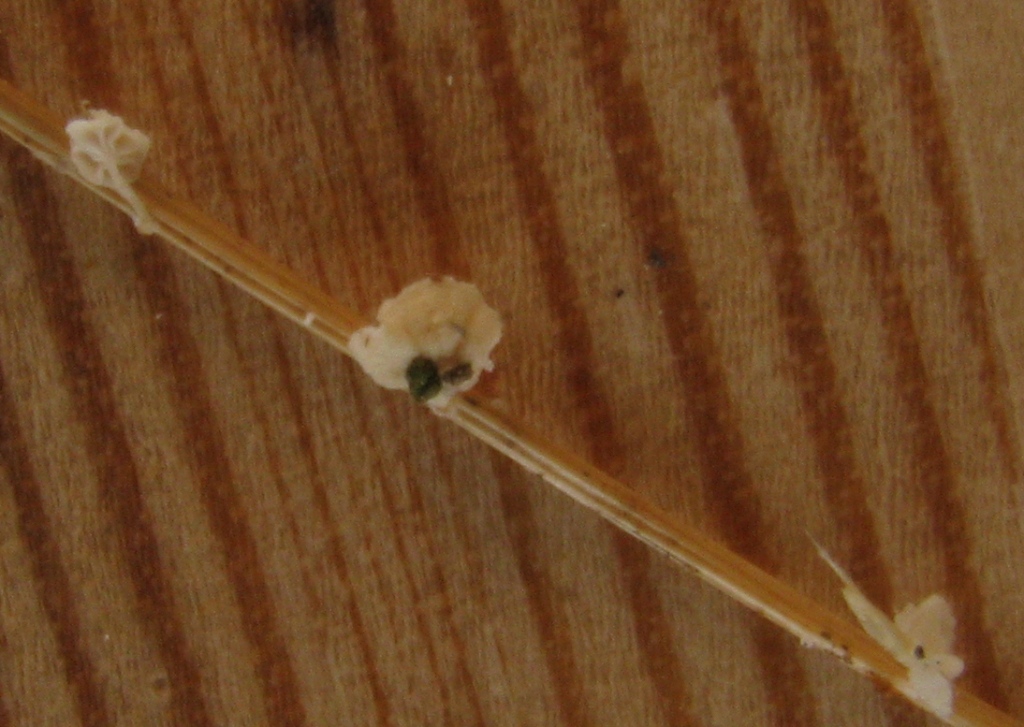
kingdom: Fungi
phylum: Basidiomycota
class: Agaricomycetes
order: Agaricales
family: Mycenaceae
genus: Resinomycena
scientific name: Resinomycena saccharifera
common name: sukkerhat
